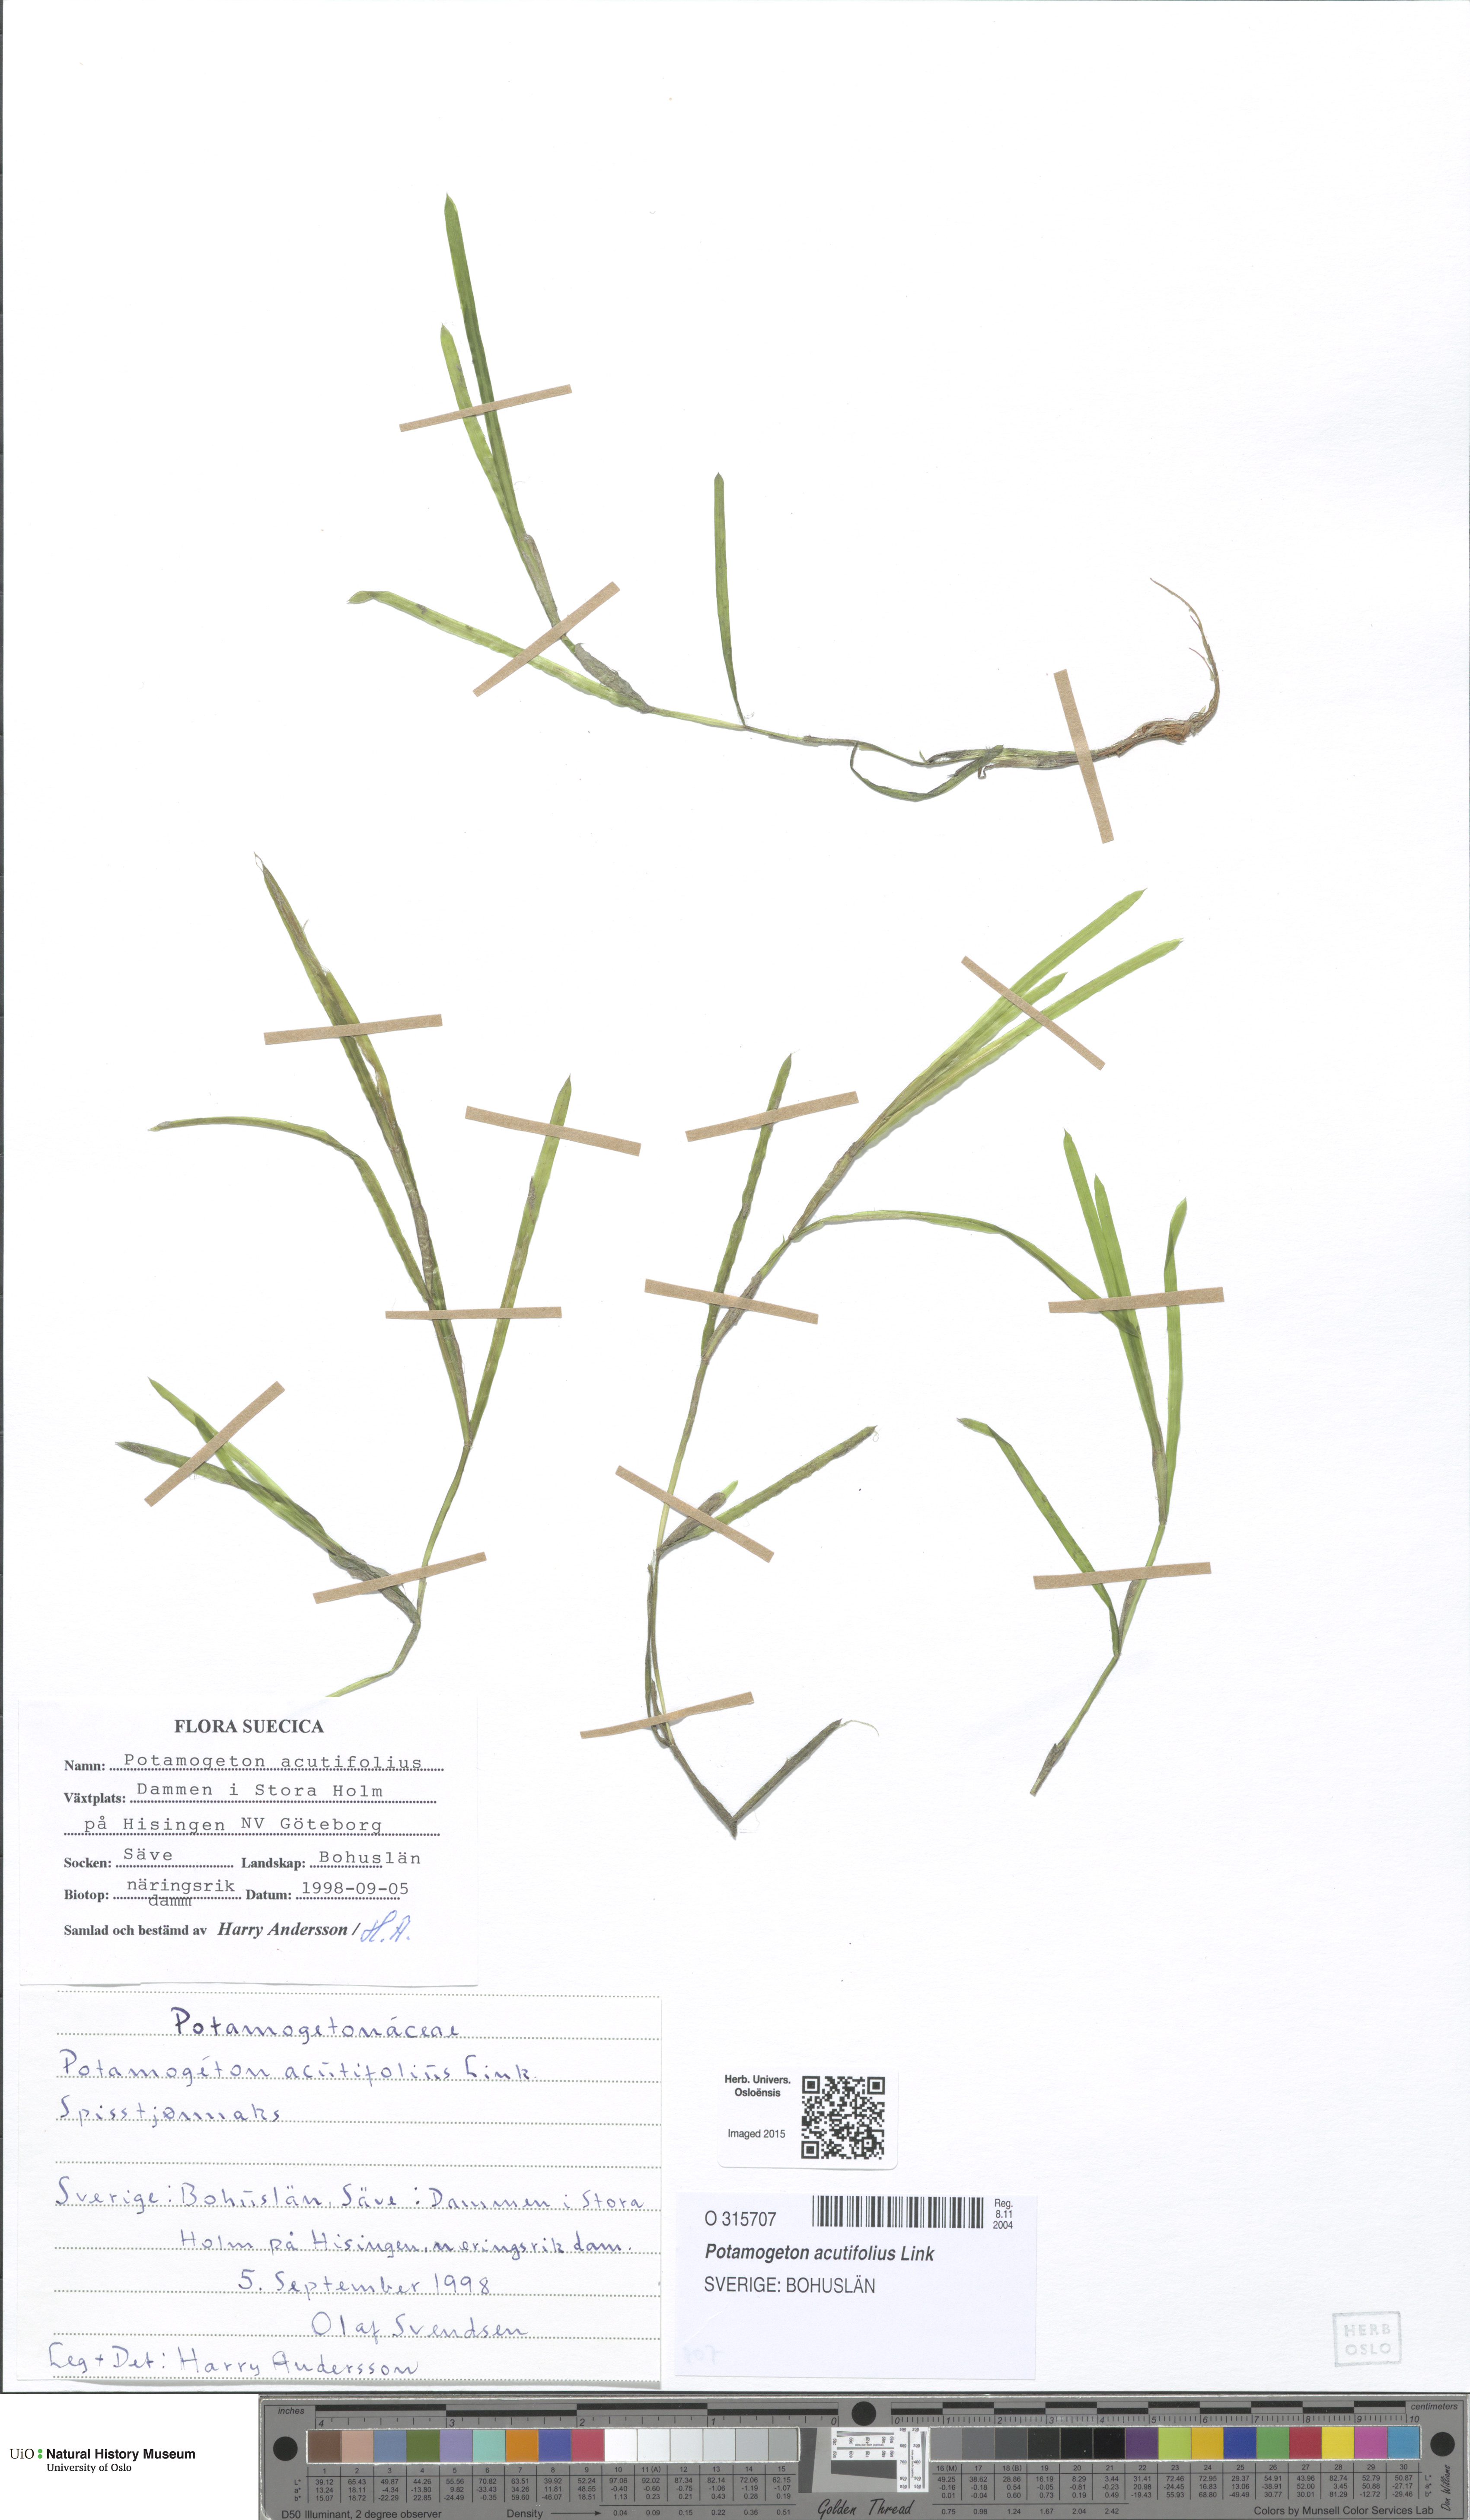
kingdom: Plantae
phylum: Tracheophyta
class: Liliopsida
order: Alismatales
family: Potamogetonaceae
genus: Potamogeton
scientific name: Potamogeton acutifolius
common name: Sharp-leaved pondweed
